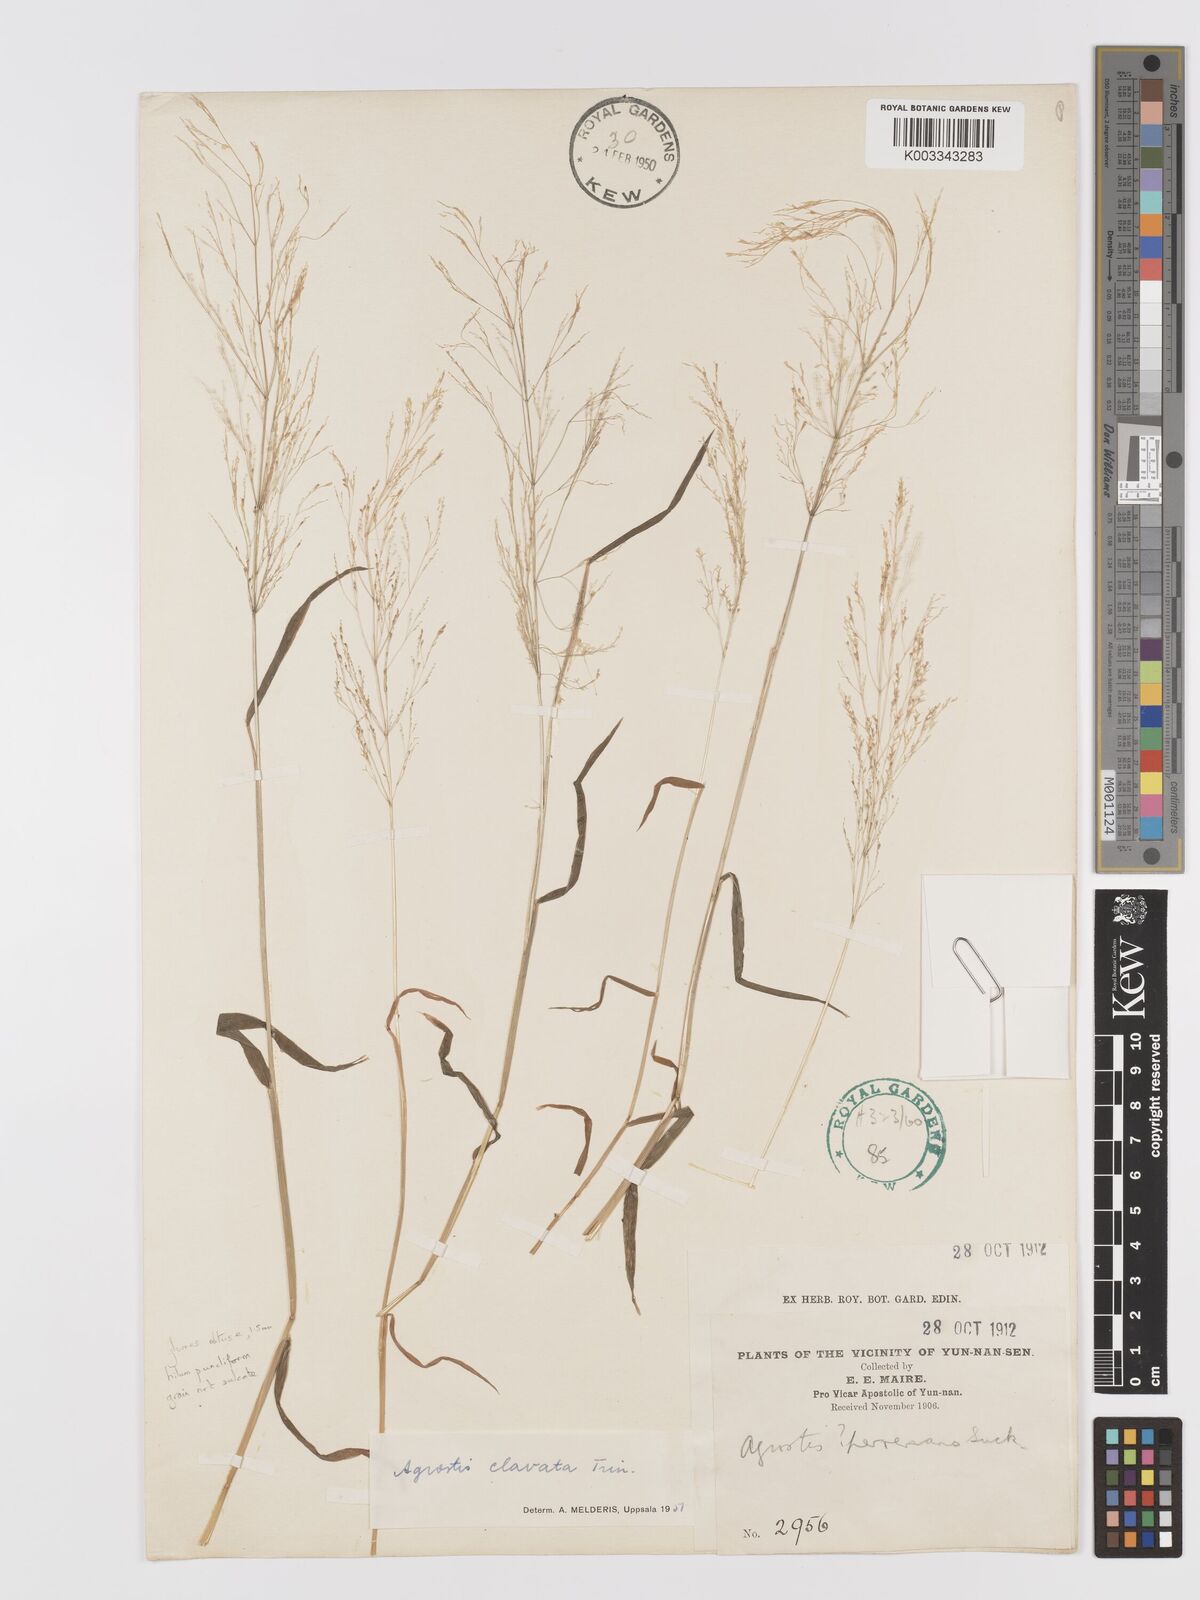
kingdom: Plantae
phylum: Tracheophyta
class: Liliopsida
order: Poales
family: Poaceae
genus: Agrostis
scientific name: Agrostis
